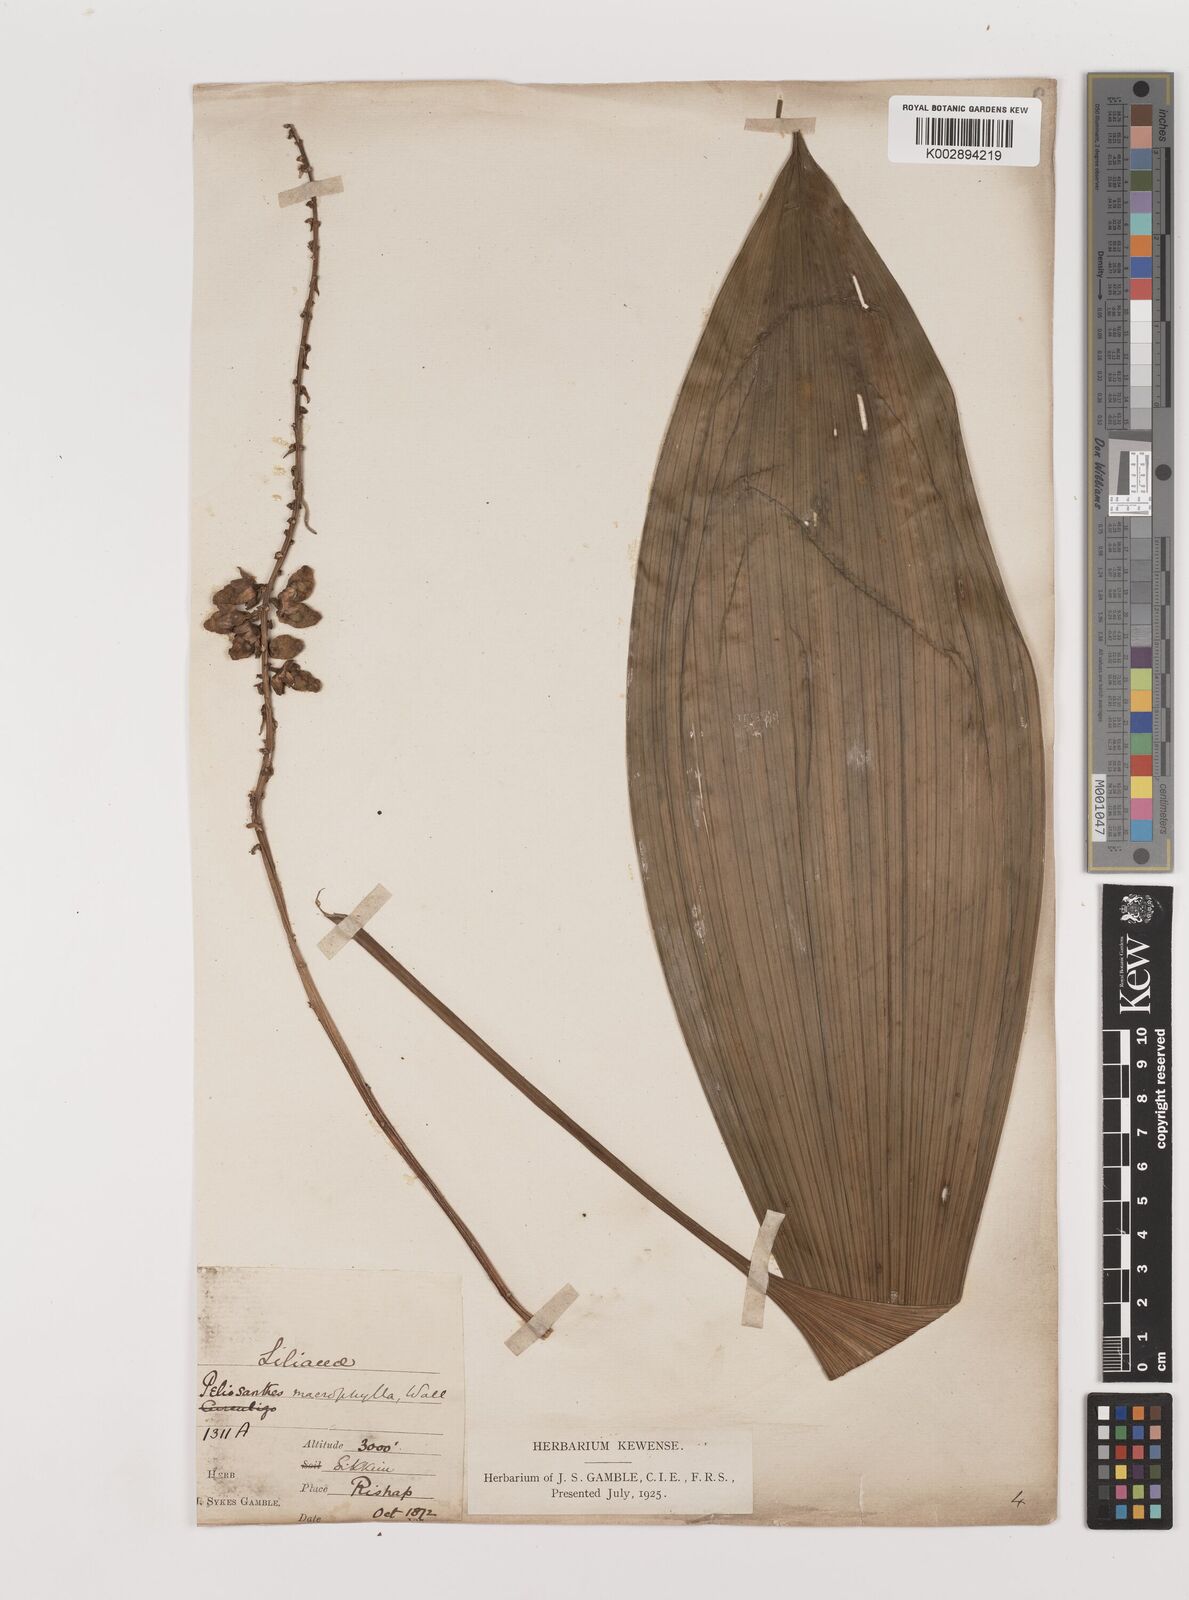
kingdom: Plantae
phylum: Tracheophyta
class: Liliopsida
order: Asparagales
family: Asparagaceae
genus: Peliosanthes
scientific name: Peliosanthes teta
